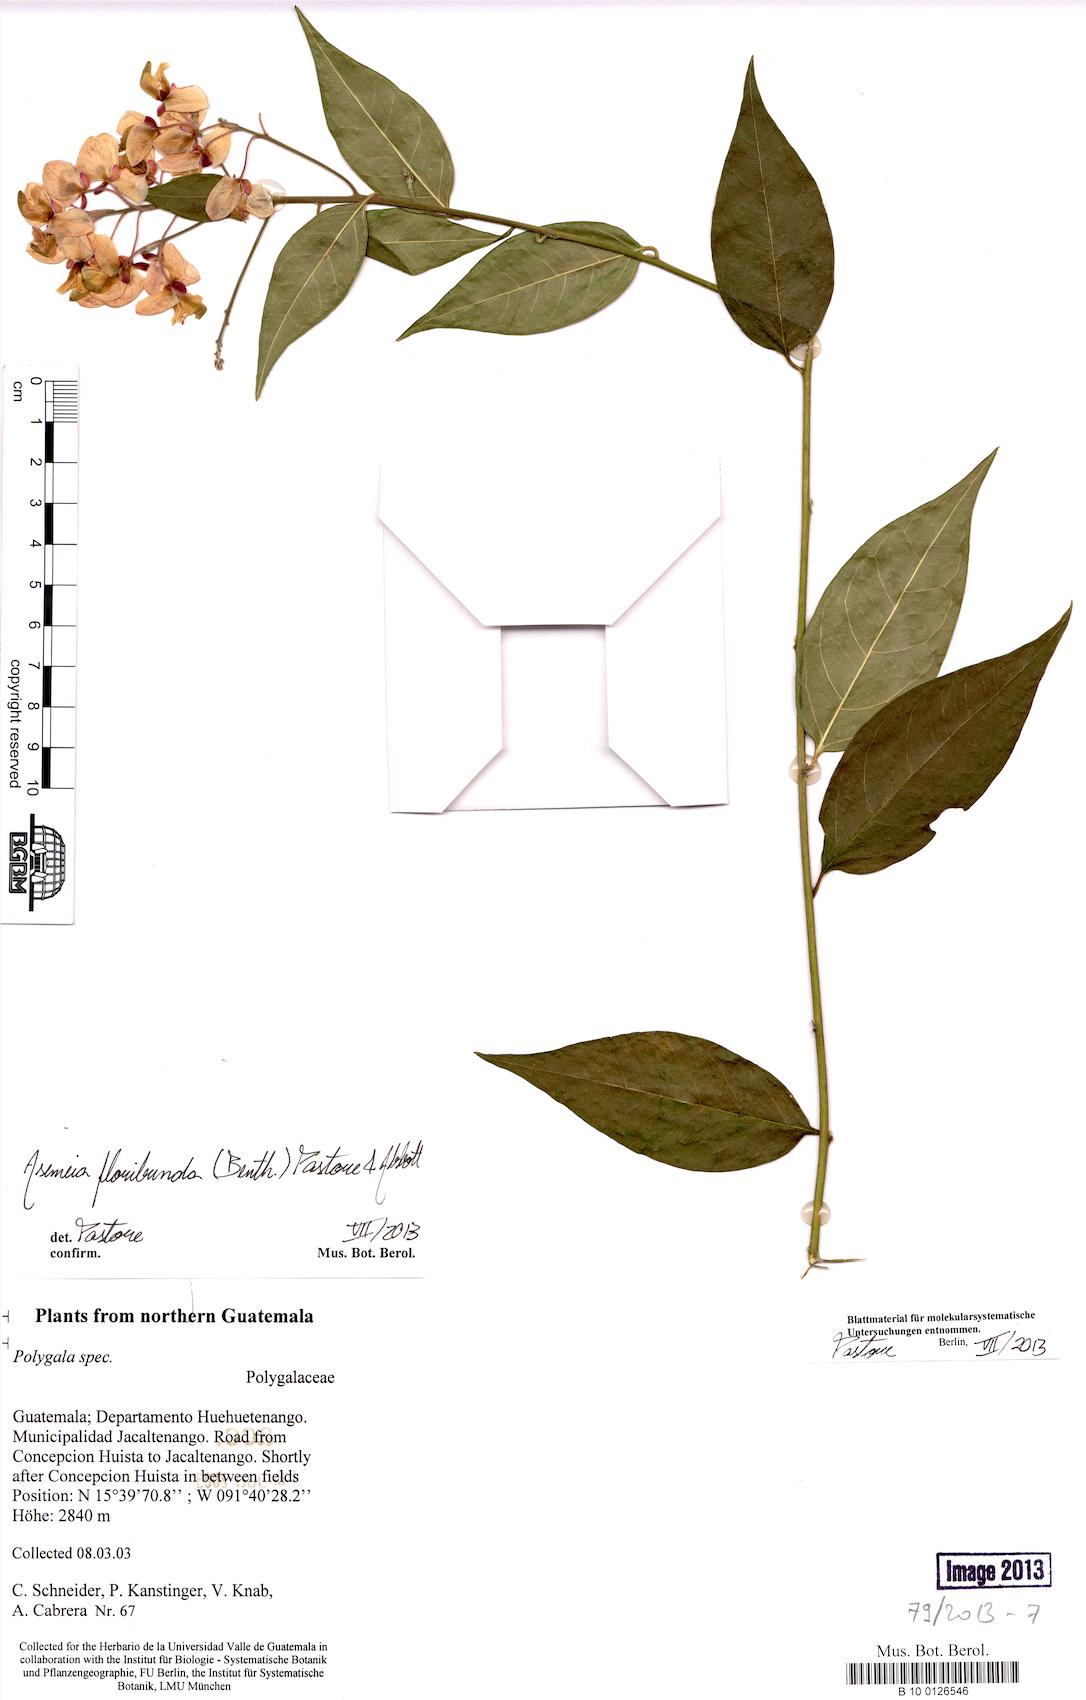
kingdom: Plantae
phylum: Tracheophyta
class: Magnoliopsida
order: Fabales
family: Polygalaceae
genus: Asemeia
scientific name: Asemeia floribunda
